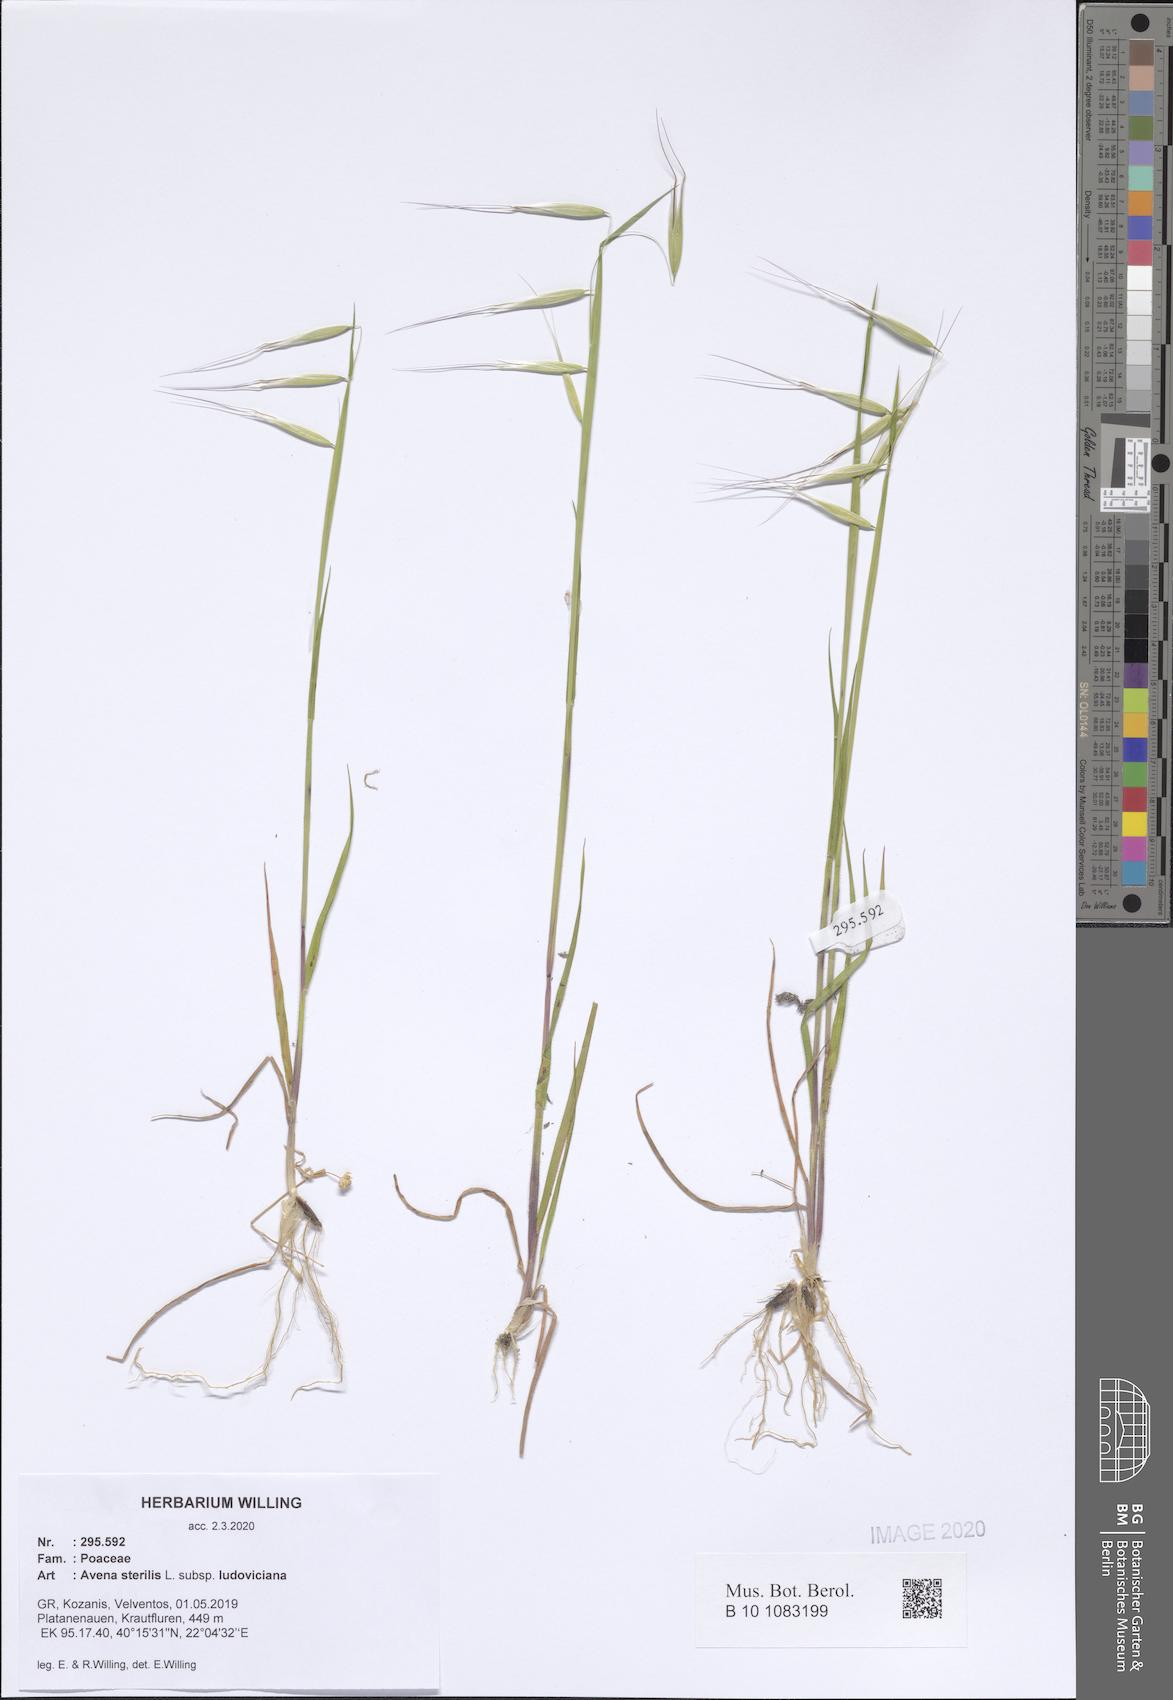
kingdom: Plantae
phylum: Tracheophyta
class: Liliopsida
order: Poales
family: Poaceae
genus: Avena
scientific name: Avena sterilis
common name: Animated oat
